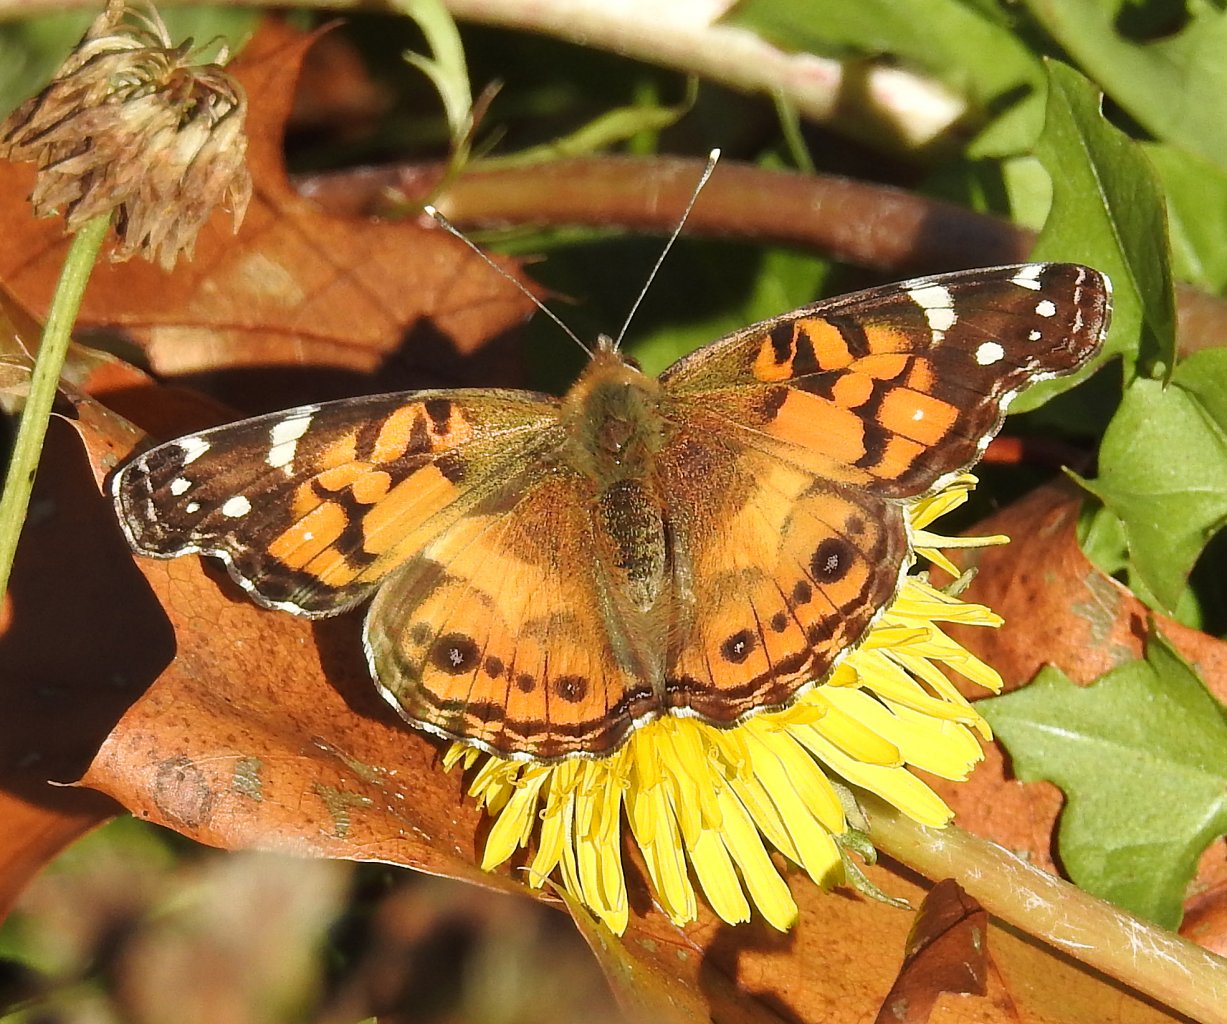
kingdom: Animalia
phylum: Arthropoda
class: Insecta
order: Lepidoptera
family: Nymphalidae
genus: Vanessa
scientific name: Vanessa virginiensis
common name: American Lady
